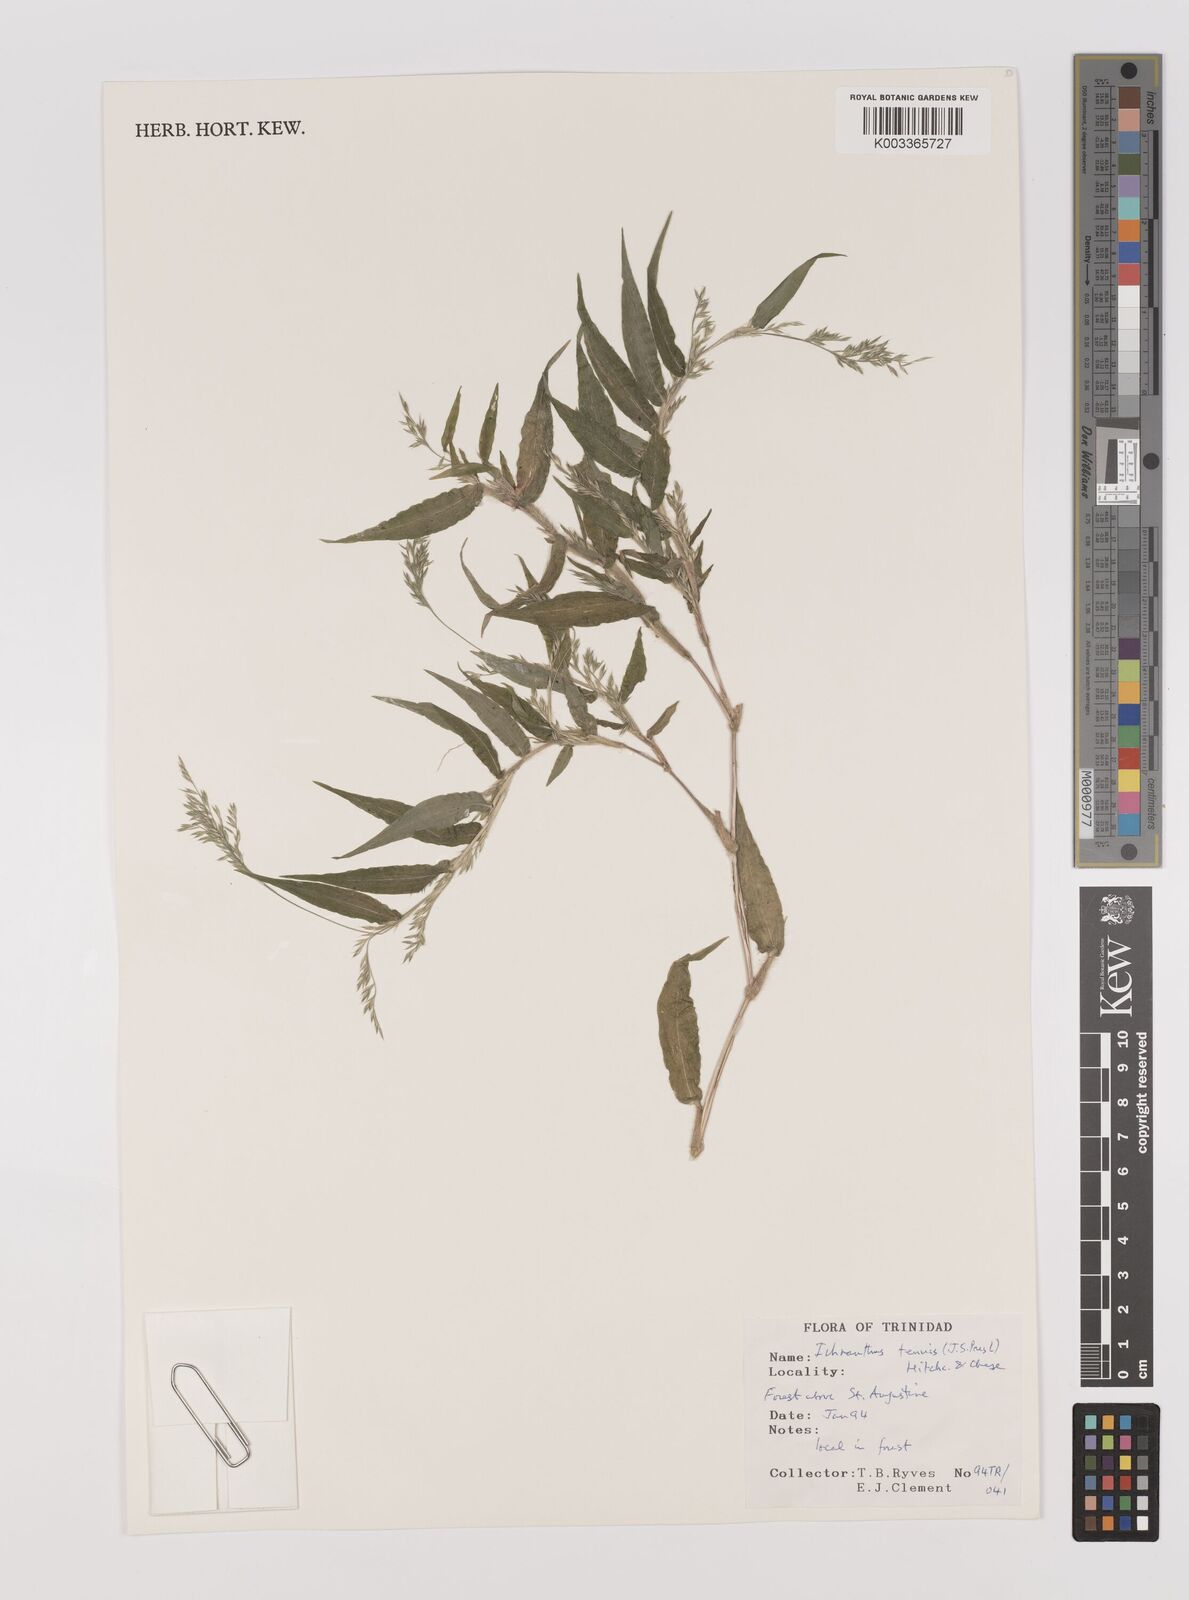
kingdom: Plantae
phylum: Tracheophyta
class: Liliopsida
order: Poales
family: Poaceae
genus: Ichnanthus
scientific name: Ichnanthus tenuis
